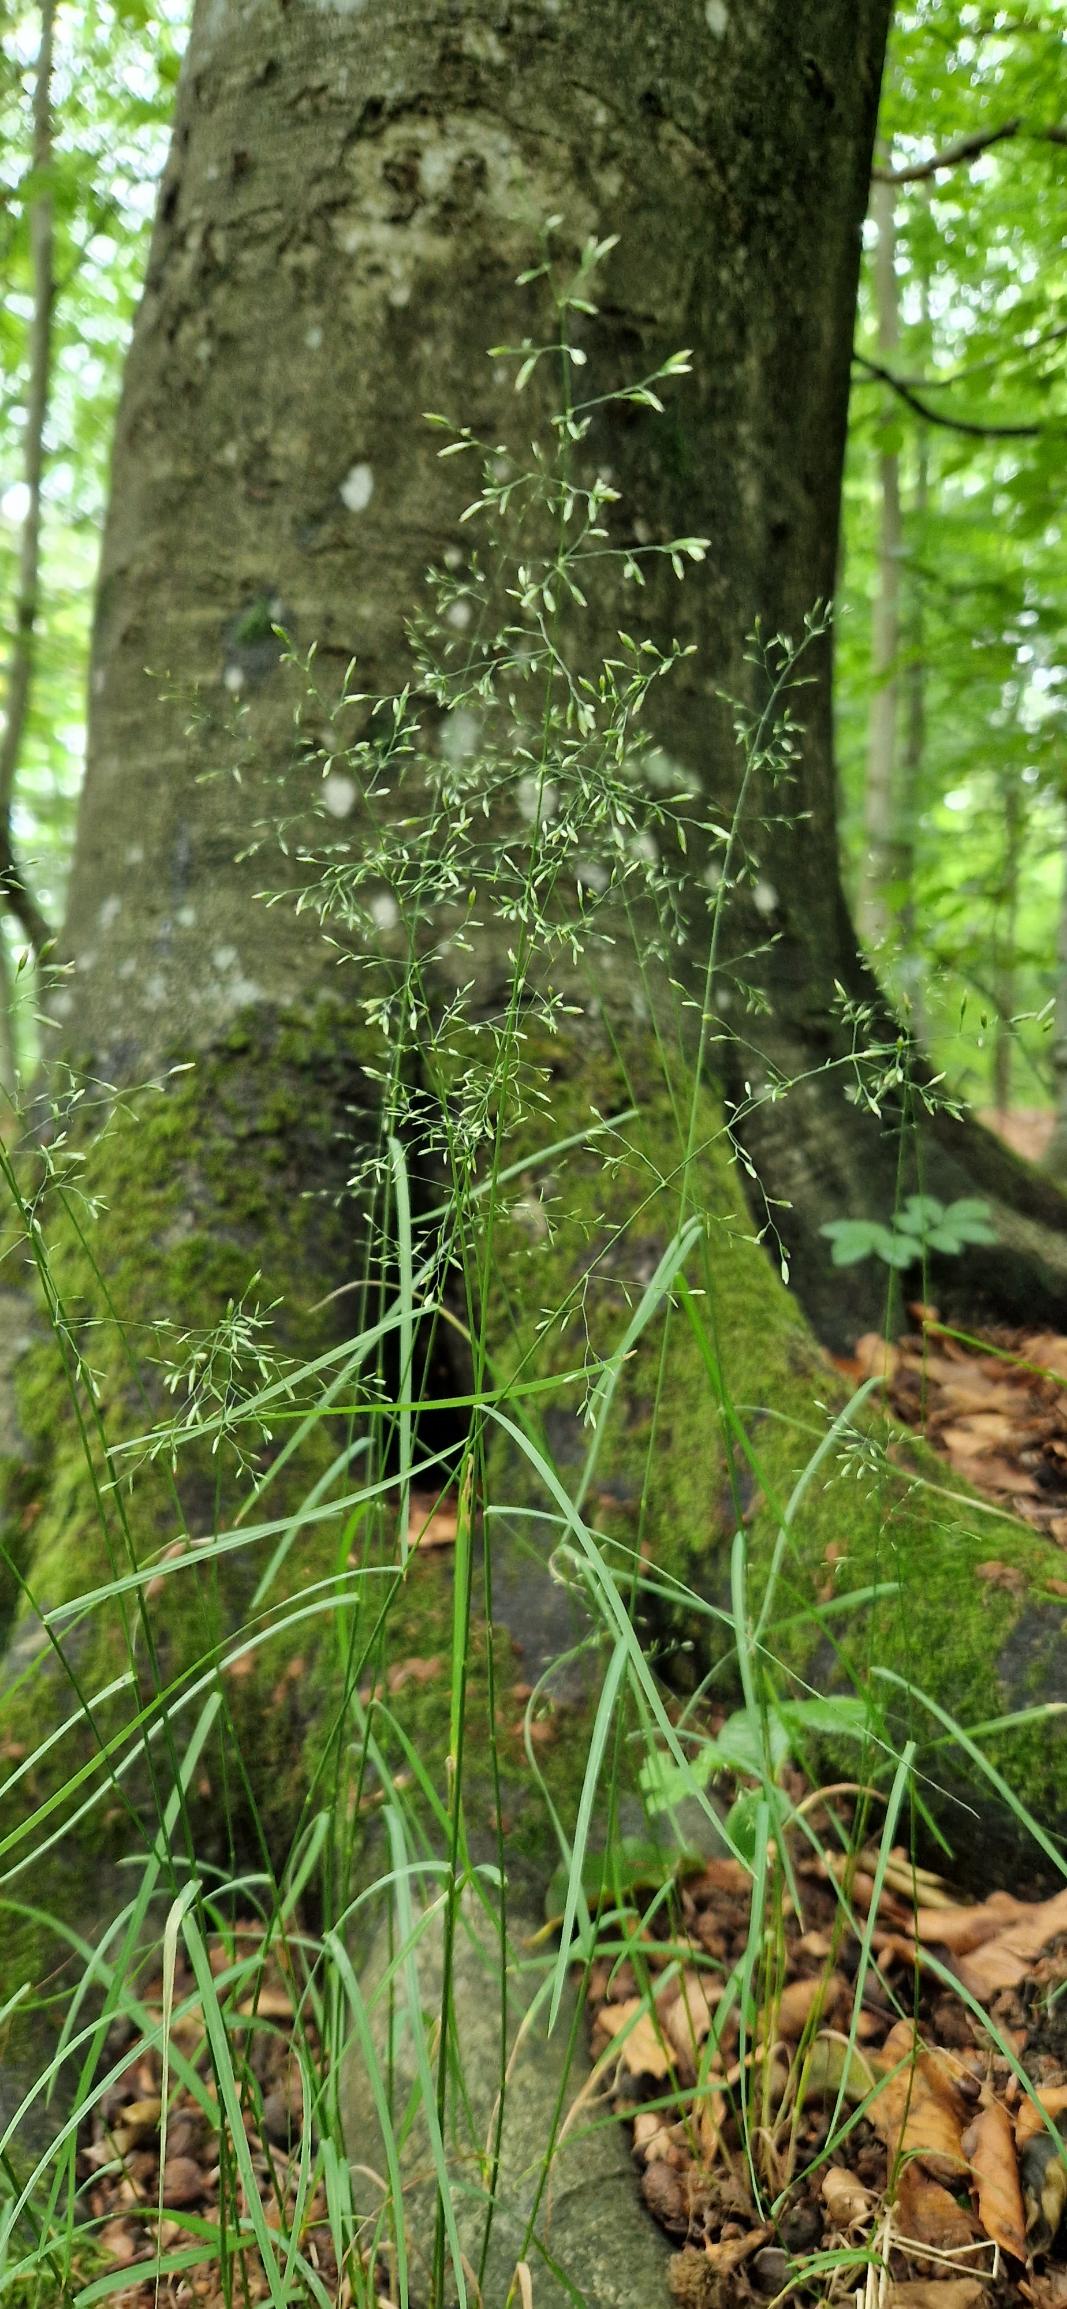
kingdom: Plantae
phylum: Tracheophyta
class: Liliopsida
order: Poales
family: Poaceae
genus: Poa
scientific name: Poa nemoralis
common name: Lund-rapgræs
